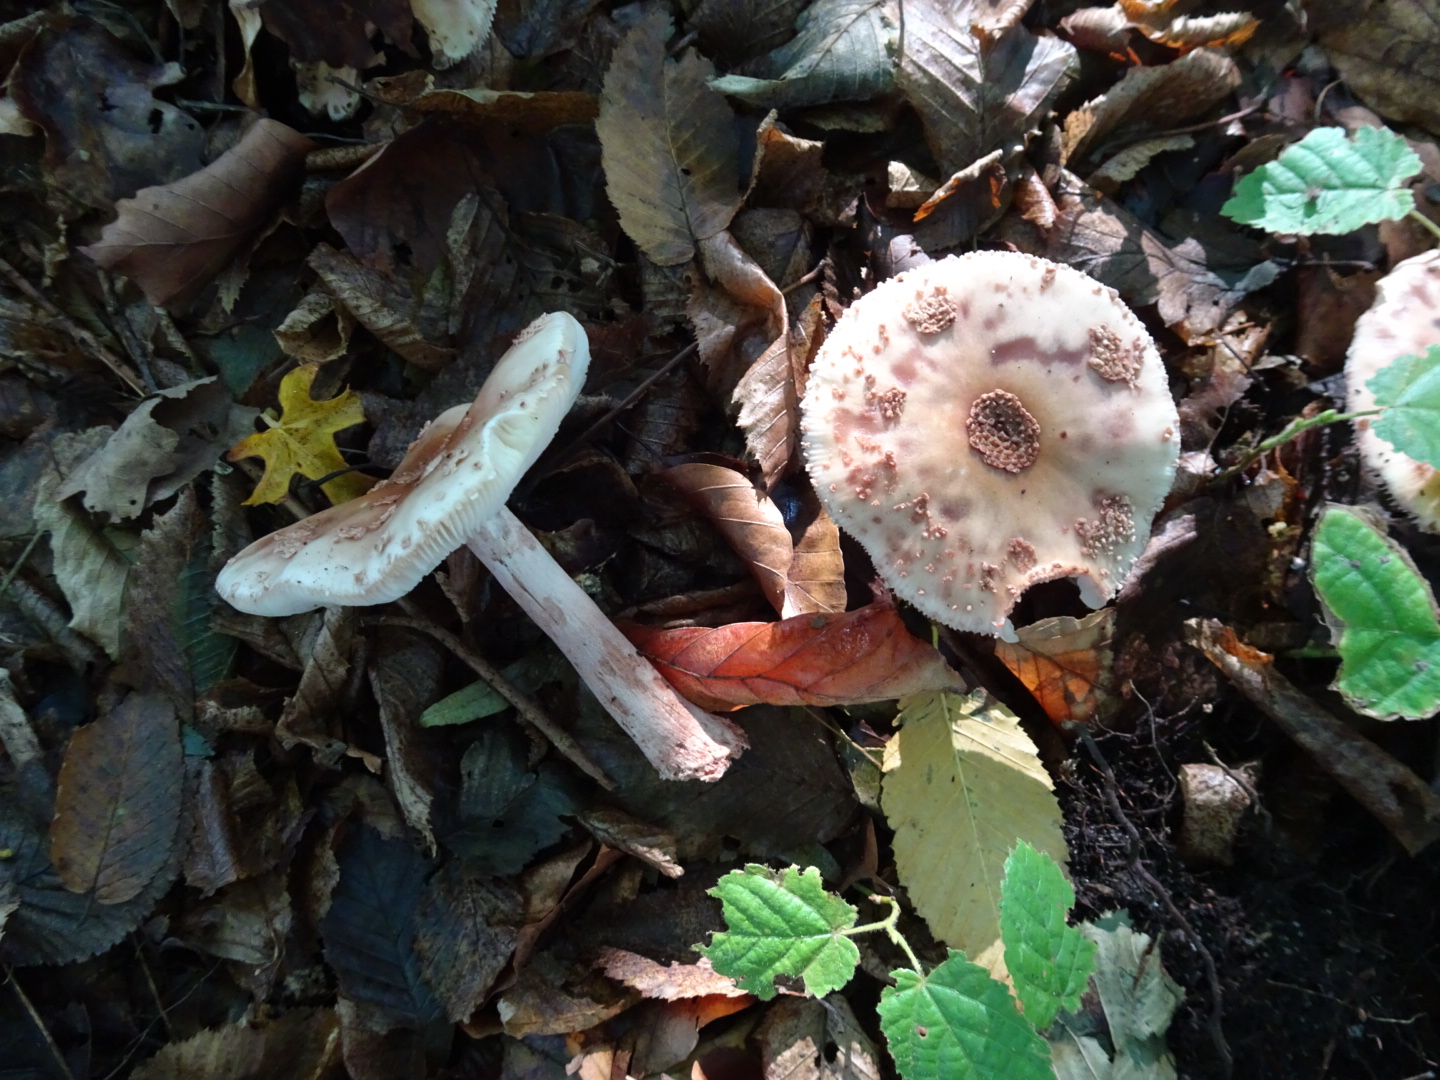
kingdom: Fungi
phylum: Basidiomycota
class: Agaricomycetes
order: Agaricales
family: Amanitaceae
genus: Amanita
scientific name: Amanita rubescens
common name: rødmende fluesvamp
